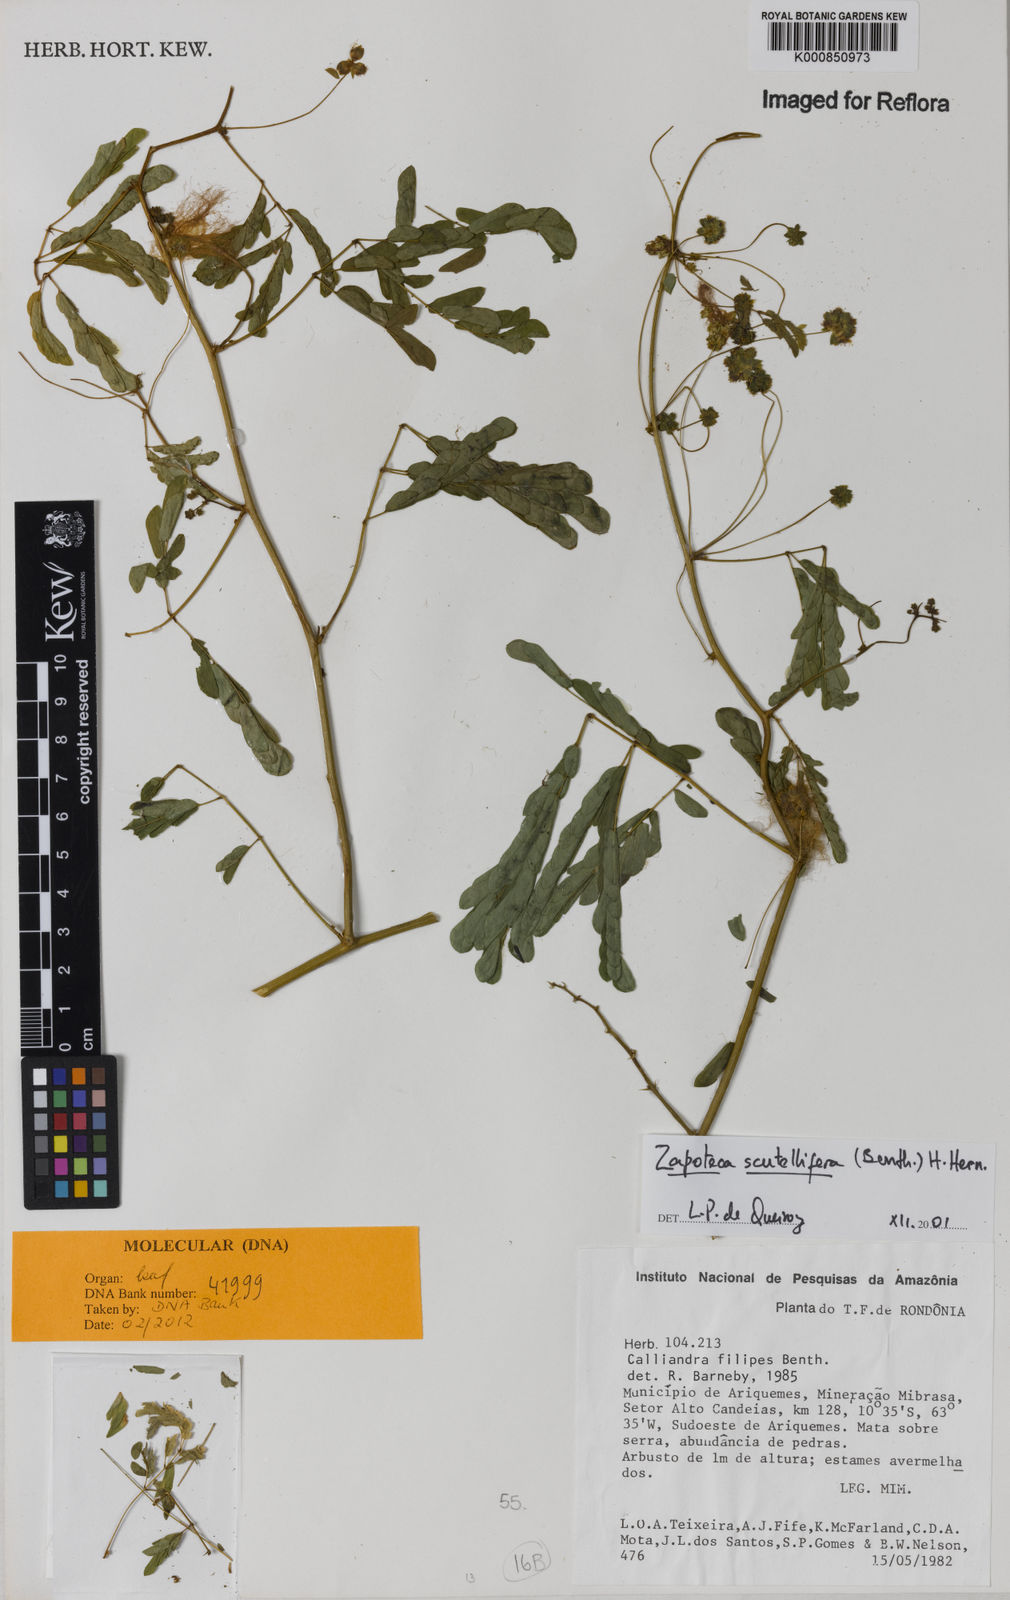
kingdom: Plantae
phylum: Tracheophyta
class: Magnoliopsida
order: Fabales
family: Fabaceae
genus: Zapoteca
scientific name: Zapoteca scutellifera
